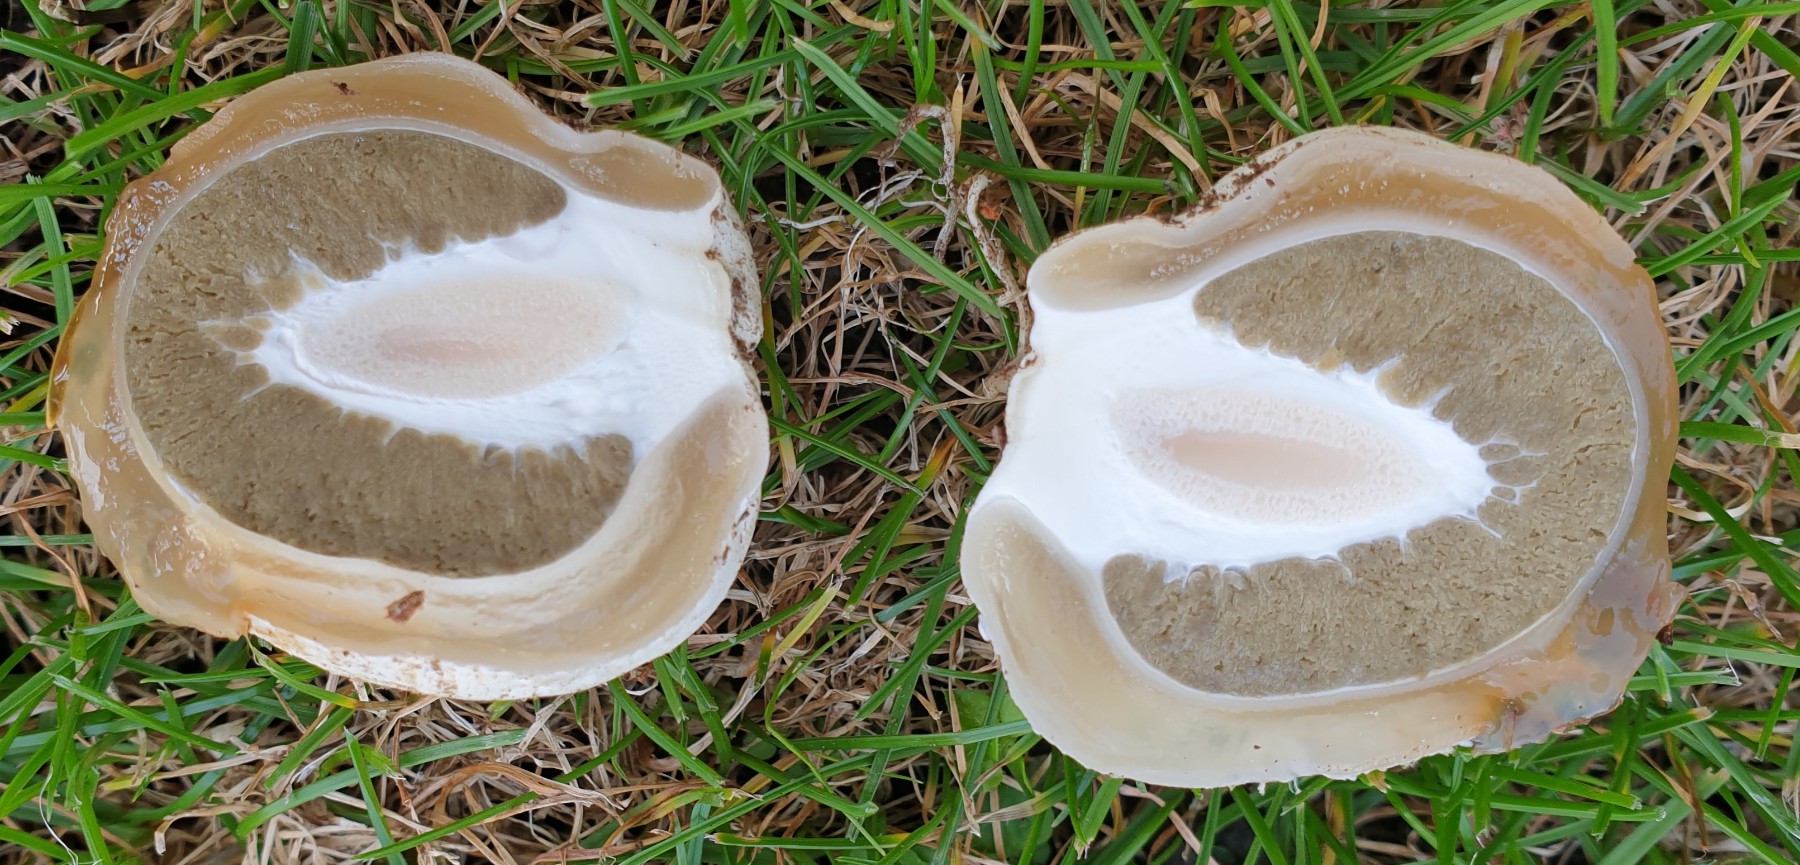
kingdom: Fungi
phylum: Basidiomycota
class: Agaricomycetes
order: Phallales
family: Phallaceae
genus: Phallus
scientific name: Phallus impudicus
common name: almindelig stinksvamp
